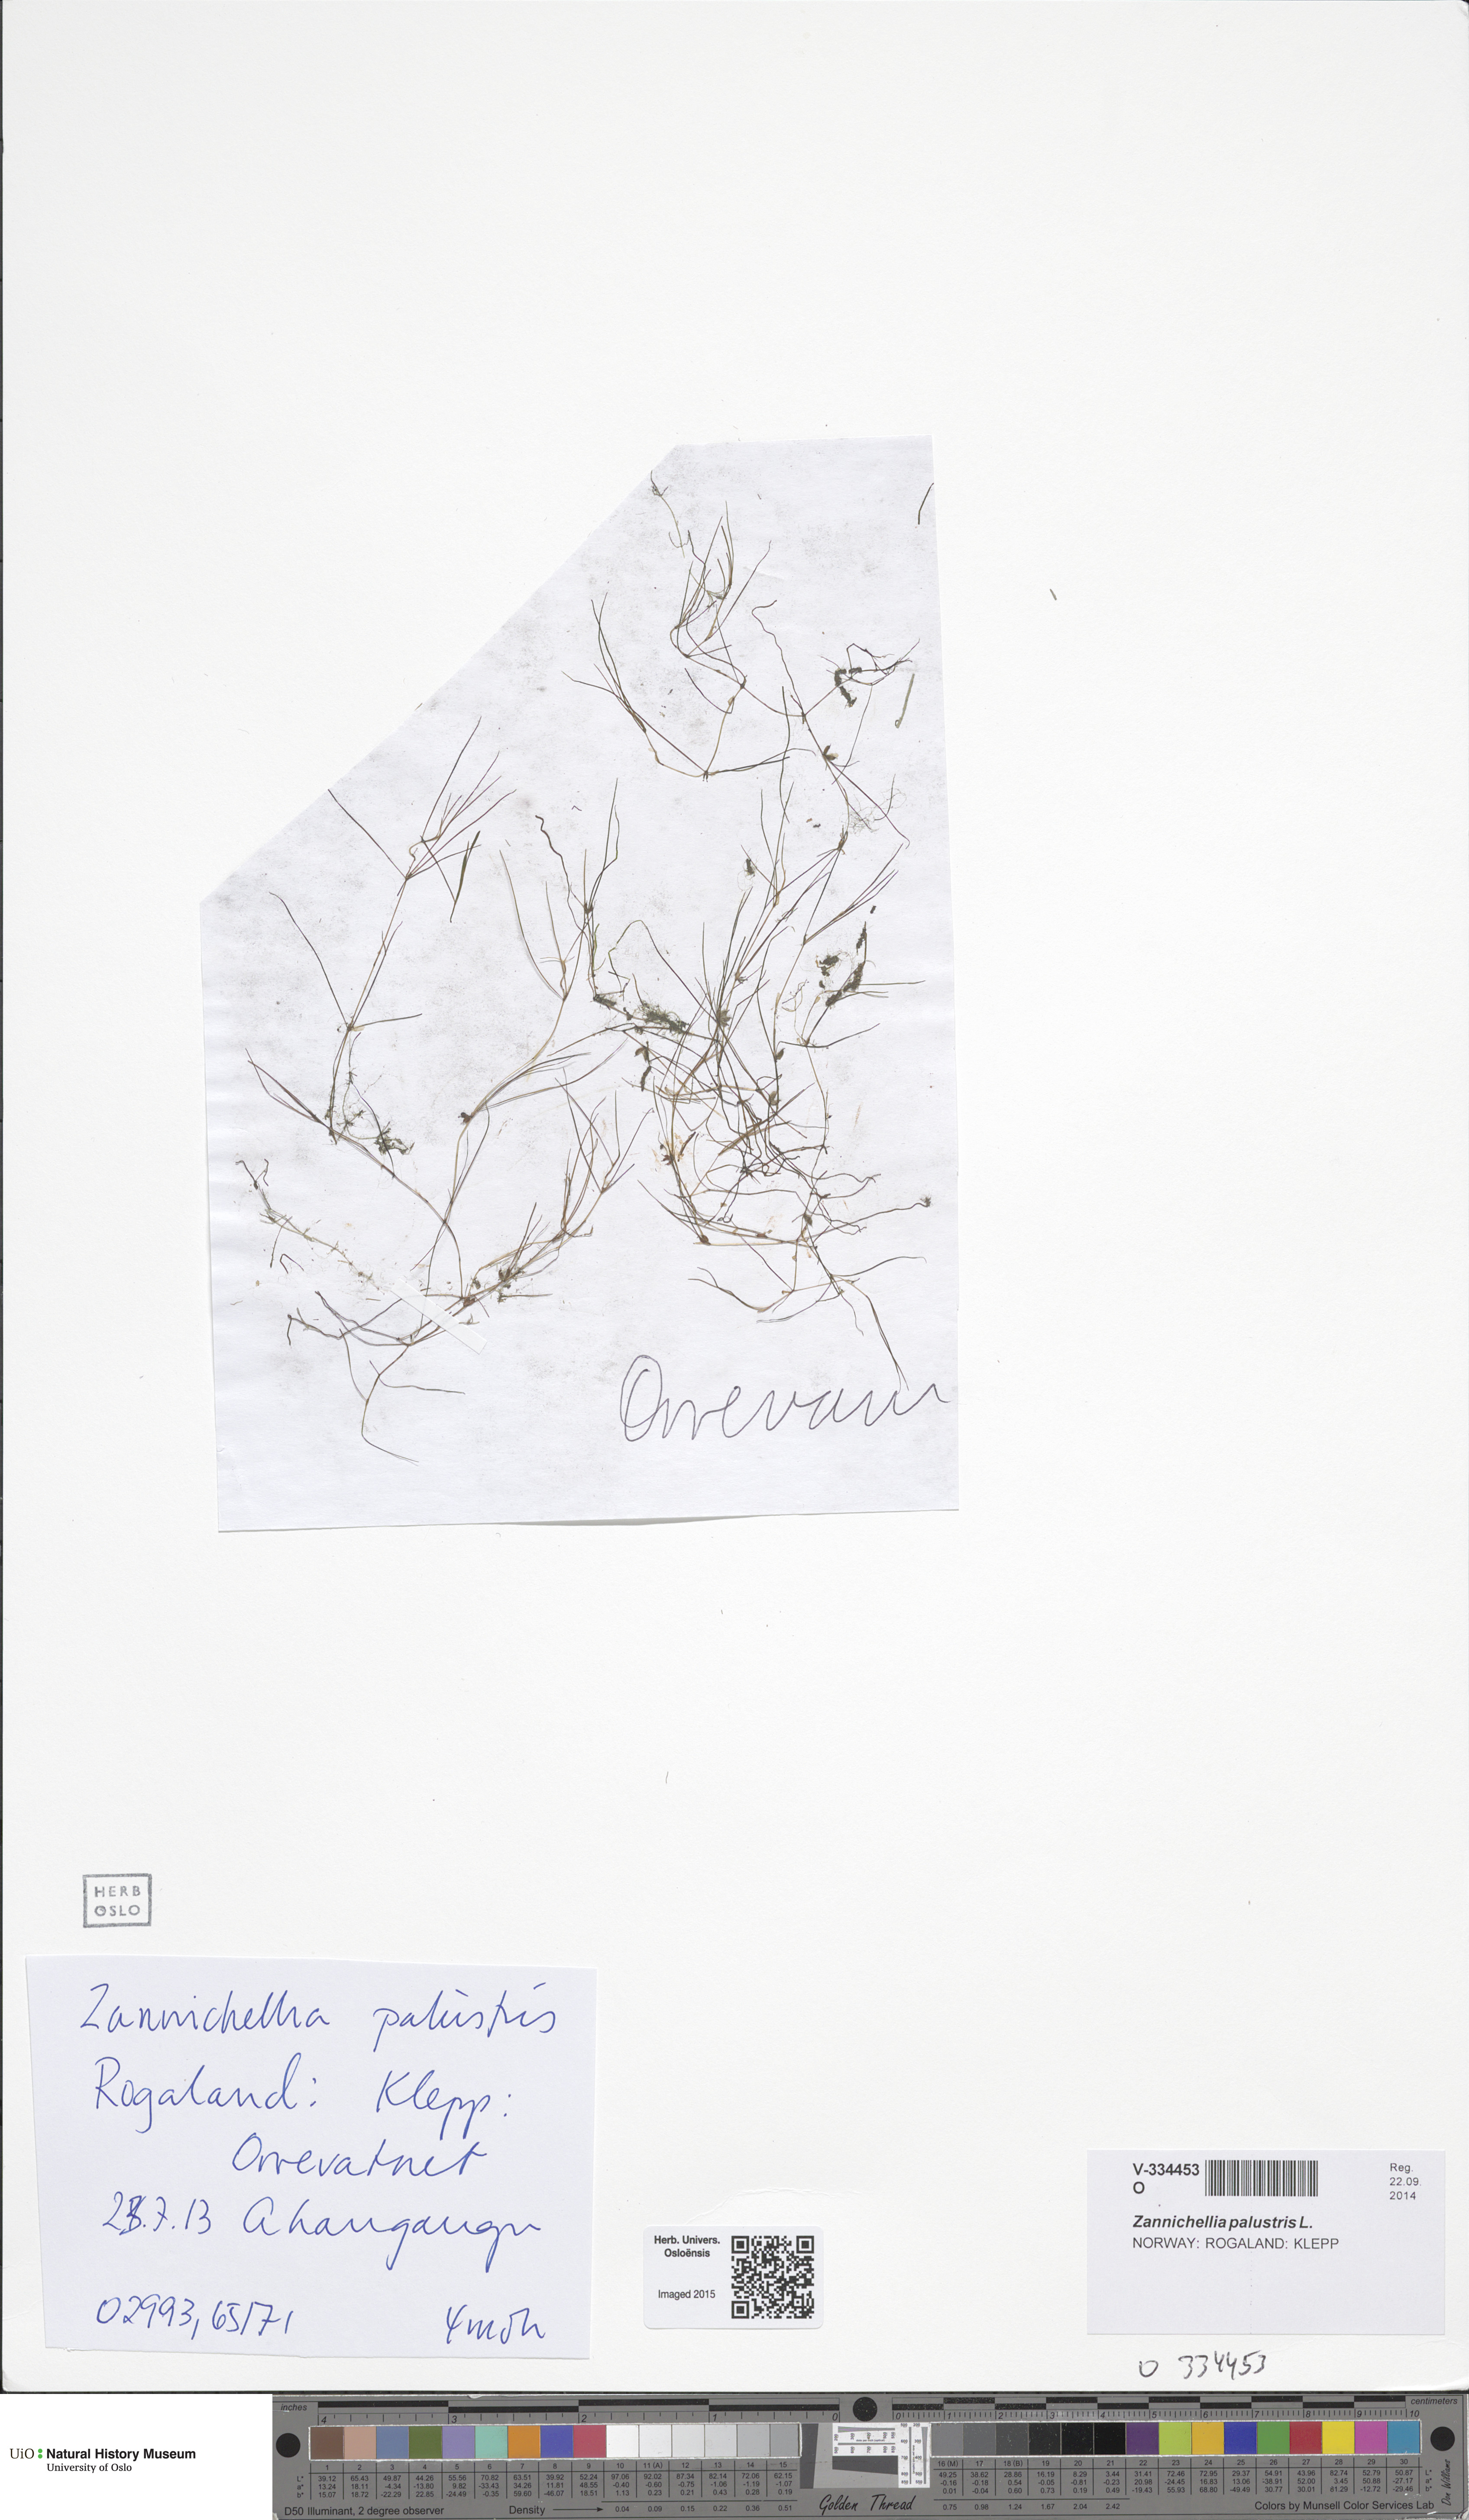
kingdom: Plantae
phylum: Tracheophyta
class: Liliopsida
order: Alismatales
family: Potamogetonaceae
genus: Zannichellia
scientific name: Zannichellia palustris
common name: Horned pondweed
